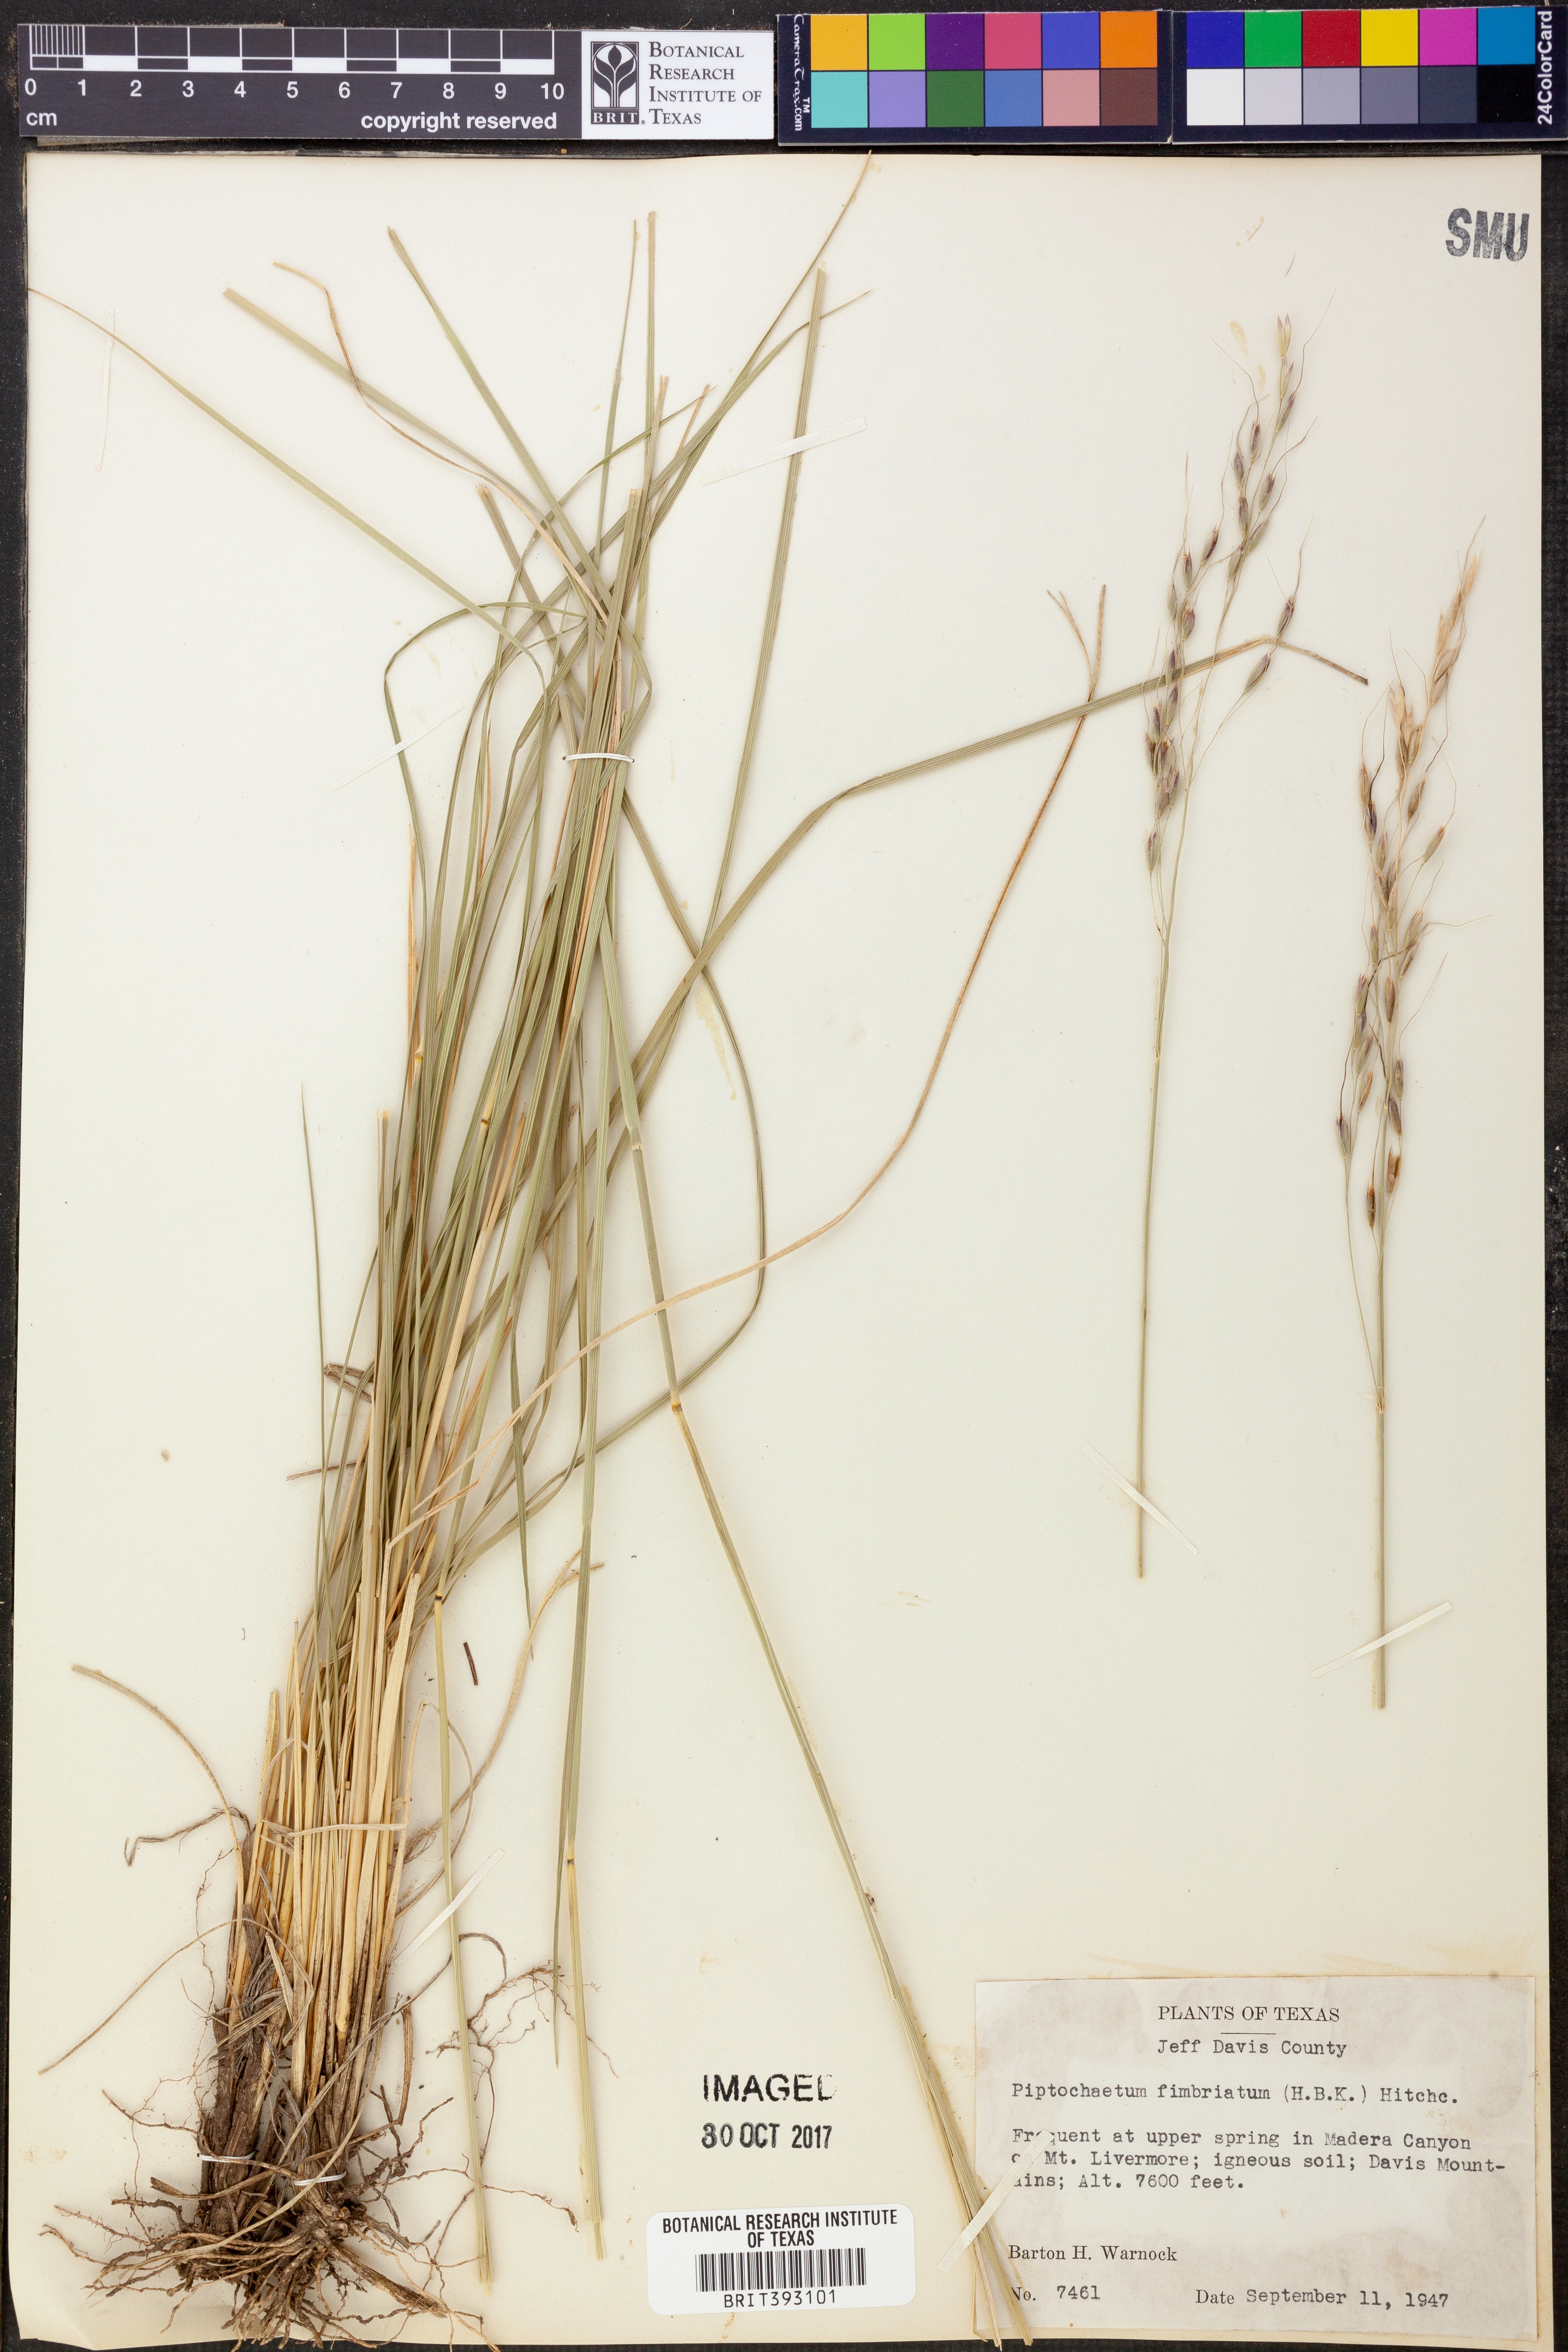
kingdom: Plantae
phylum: Tracheophyta
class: Liliopsida
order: Poales
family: Poaceae
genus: Piptochaetium
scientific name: Piptochaetium fimbriatum
